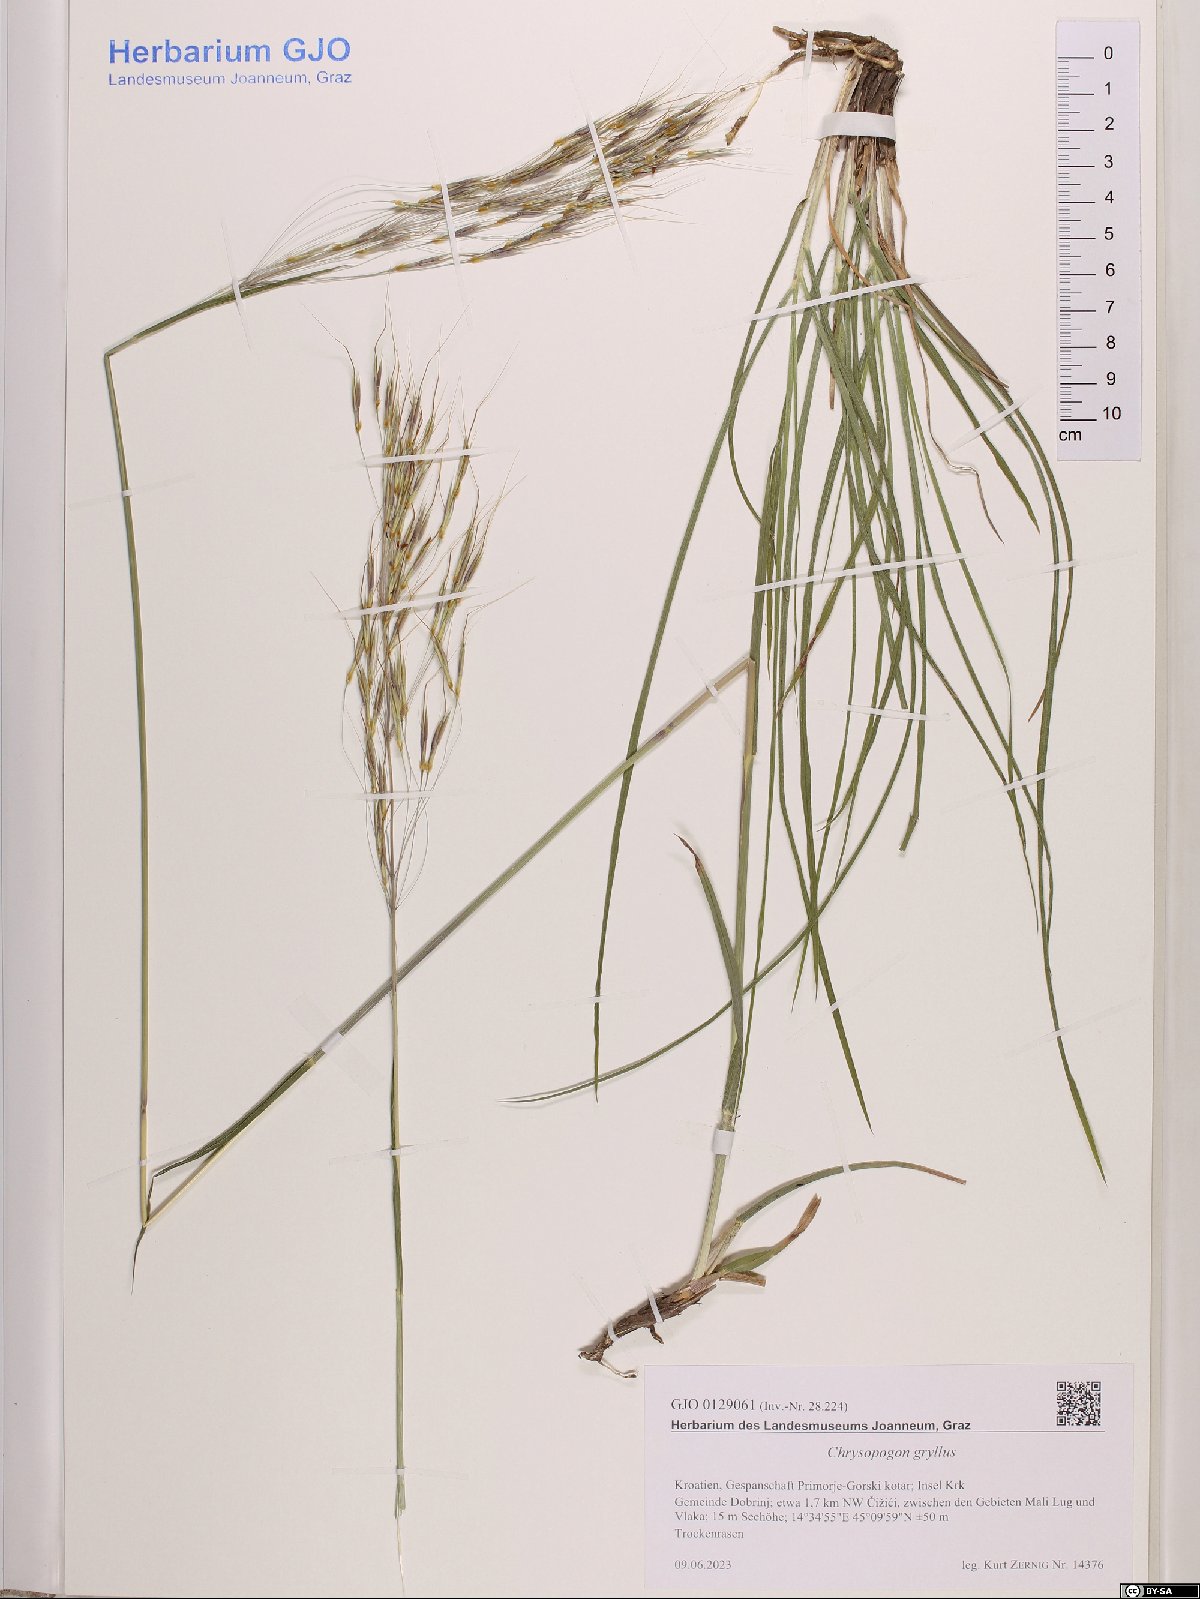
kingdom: Plantae
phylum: Tracheophyta
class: Liliopsida
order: Poales
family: Poaceae
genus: Chrysopogon
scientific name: Chrysopogon gryllus
